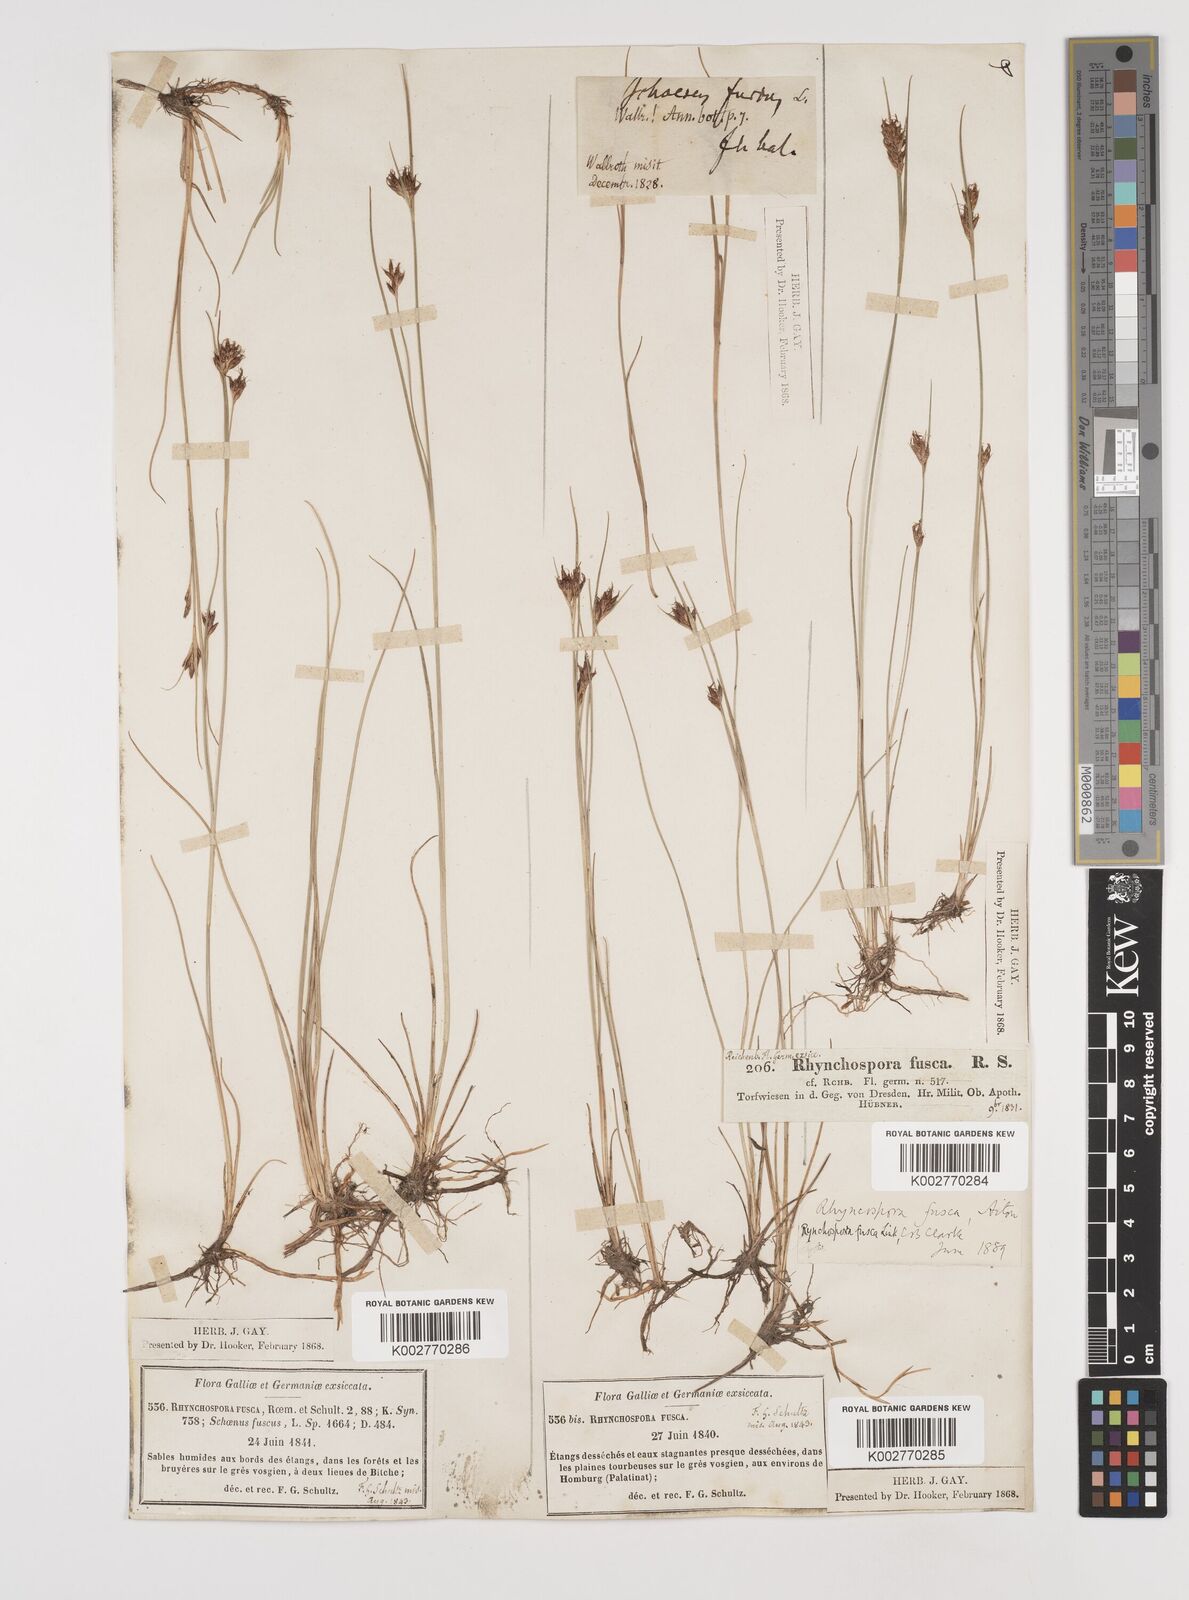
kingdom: Plantae
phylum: Tracheophyta
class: Liliopsida
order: Poales
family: Cyperaceae
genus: Rhynchospora
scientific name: Rhynchospora fusca
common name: Brown beak-sedge
